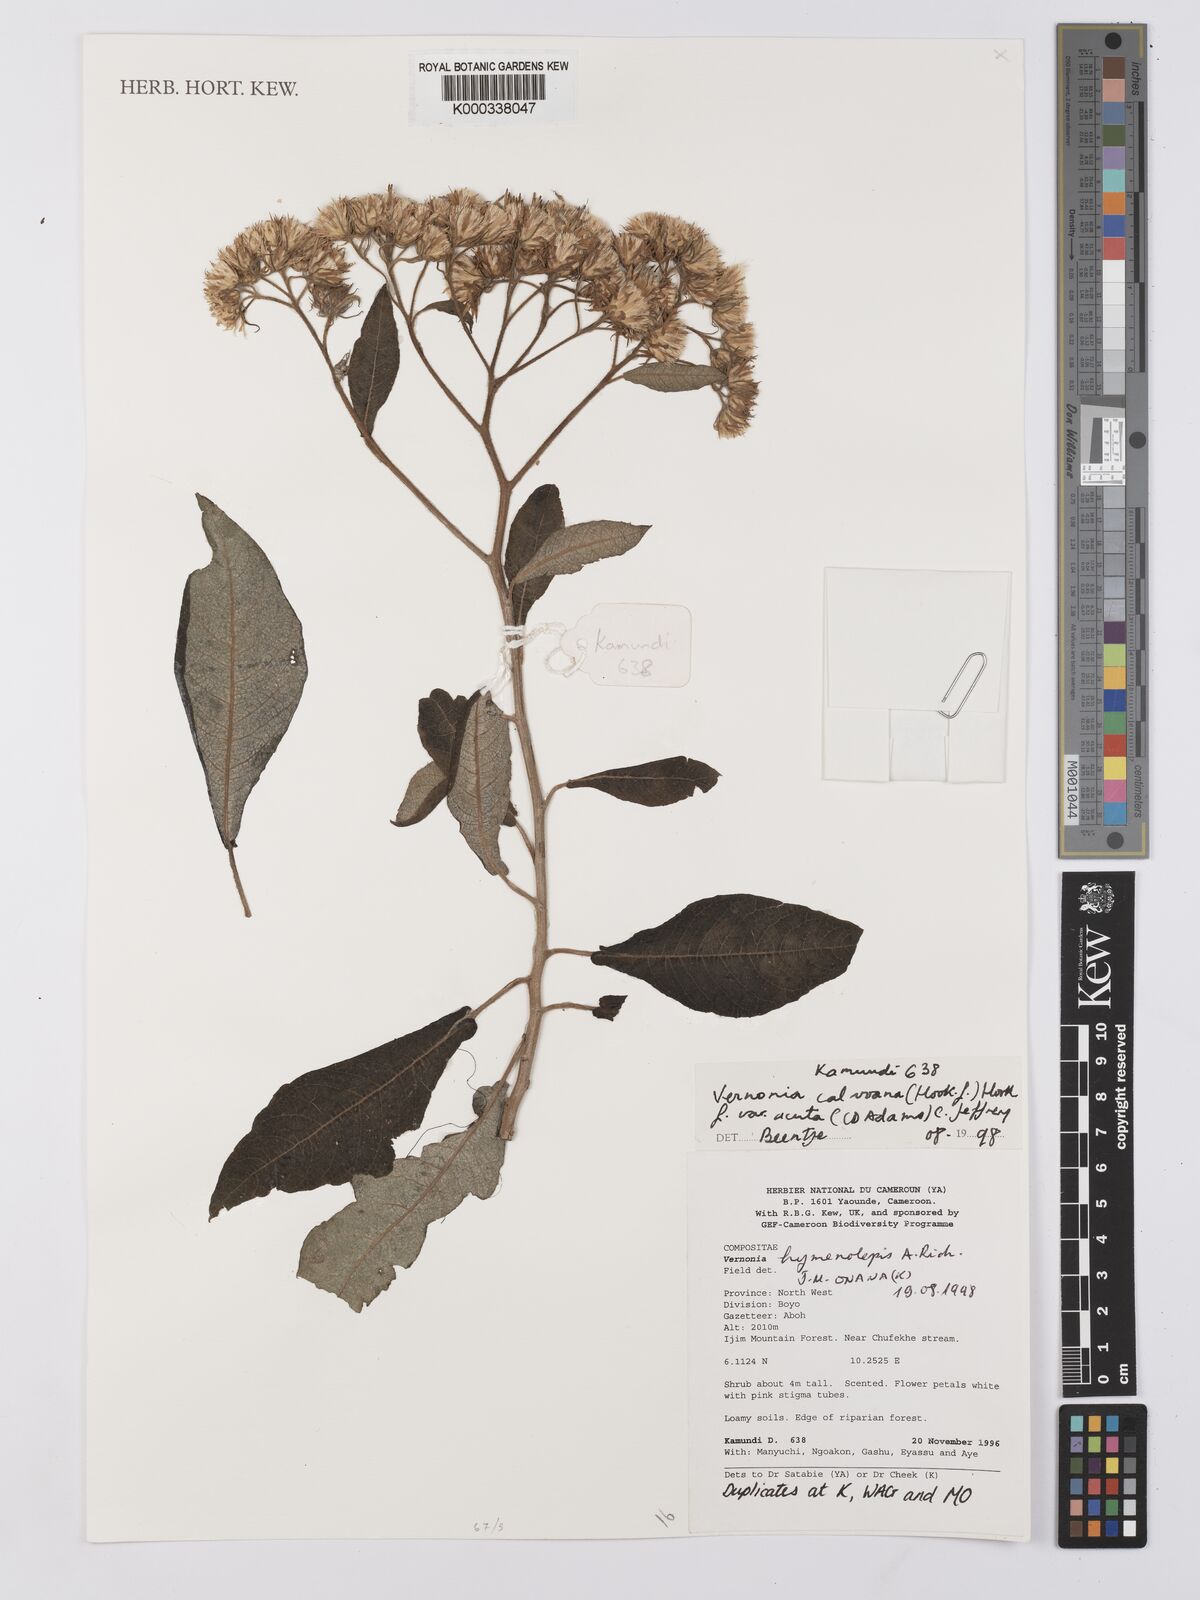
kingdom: Plantae
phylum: Tracheophyta
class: Magnoliopsida
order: Asterales
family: Asteraceae
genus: Baccharoides
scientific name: Baccharoides calvoana
